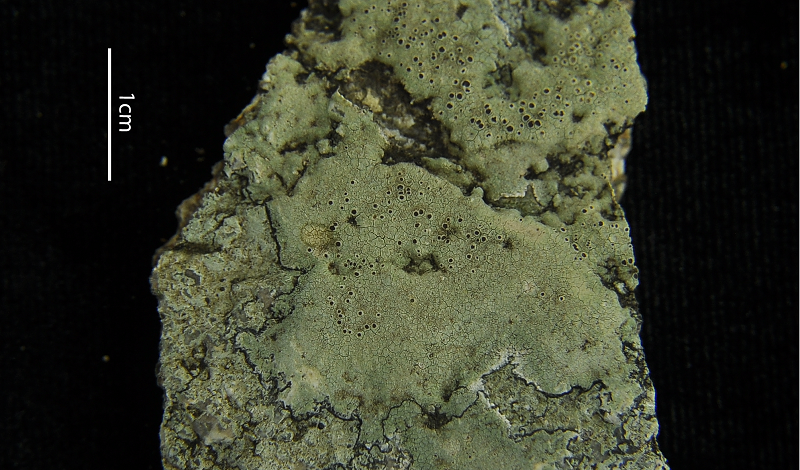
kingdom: Fungi
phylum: Ascomycota
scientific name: Ascomycota
